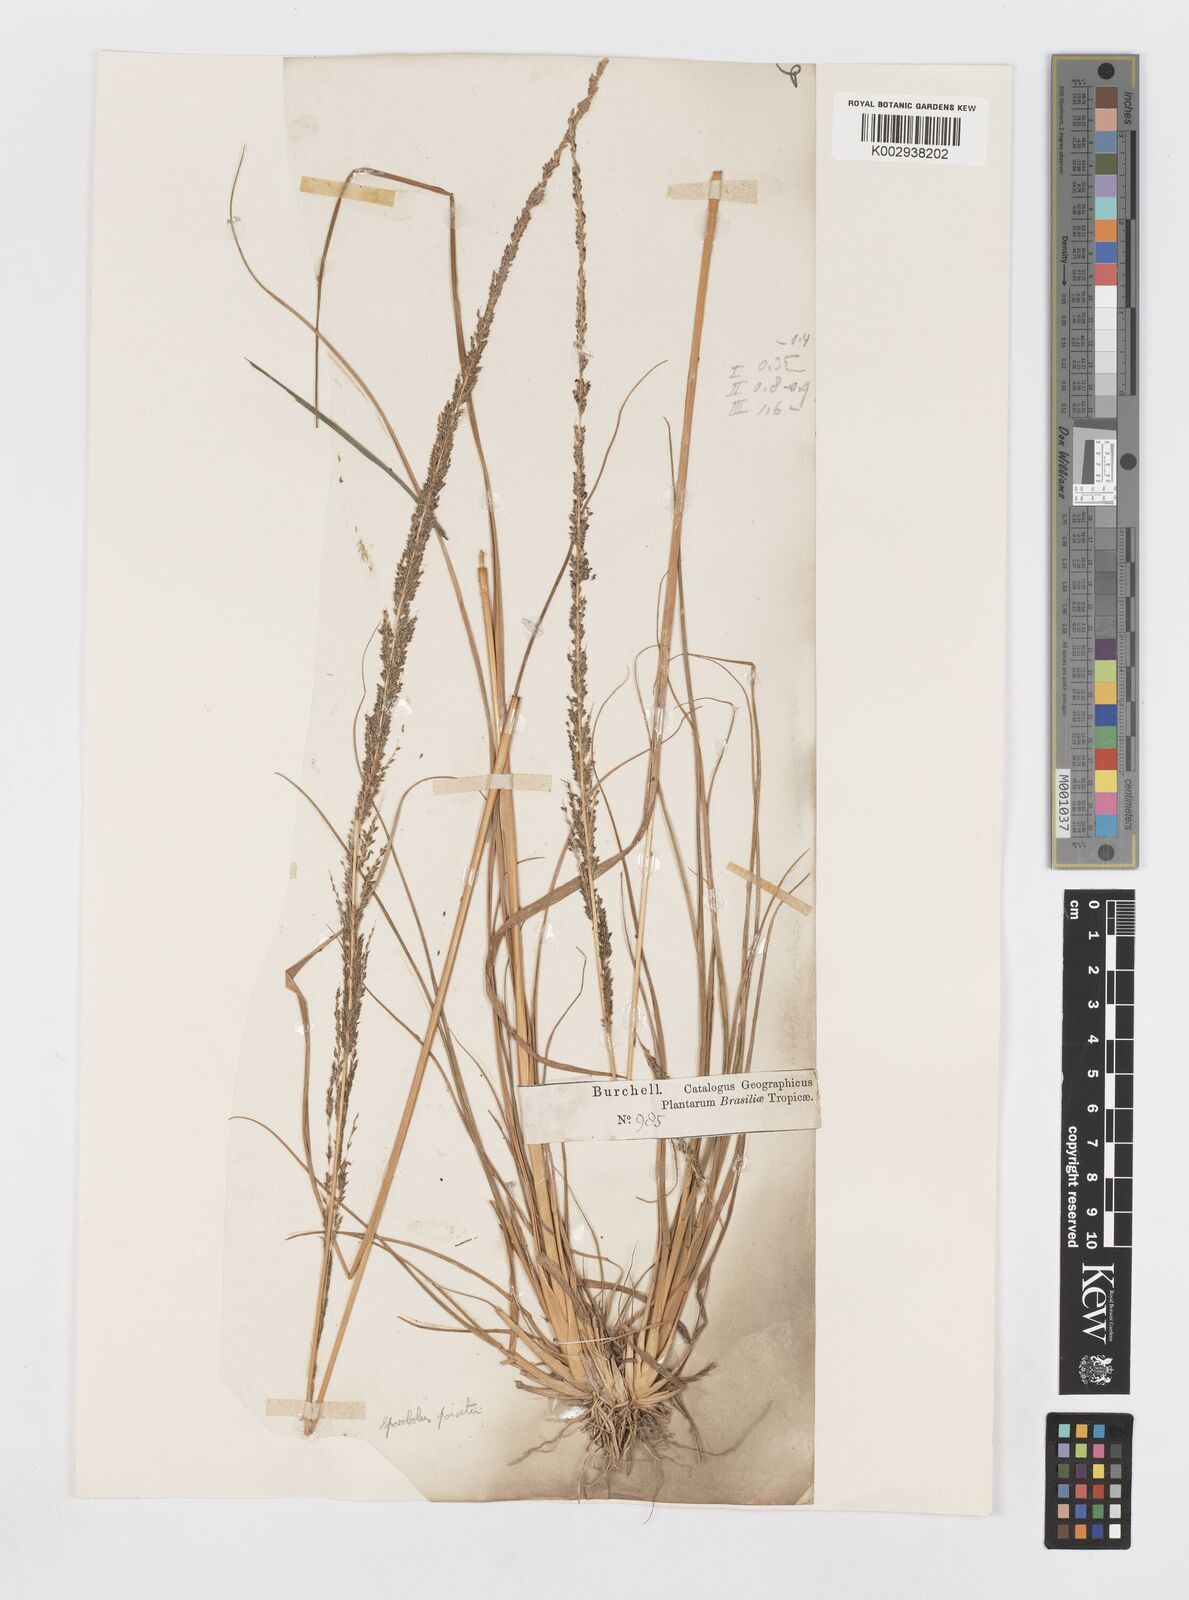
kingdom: Plantae
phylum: Tracheophyta
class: Liliopsida
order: Poales
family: Poaceae
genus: Sporobolus
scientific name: Sporobolus indicus
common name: Smut grass
